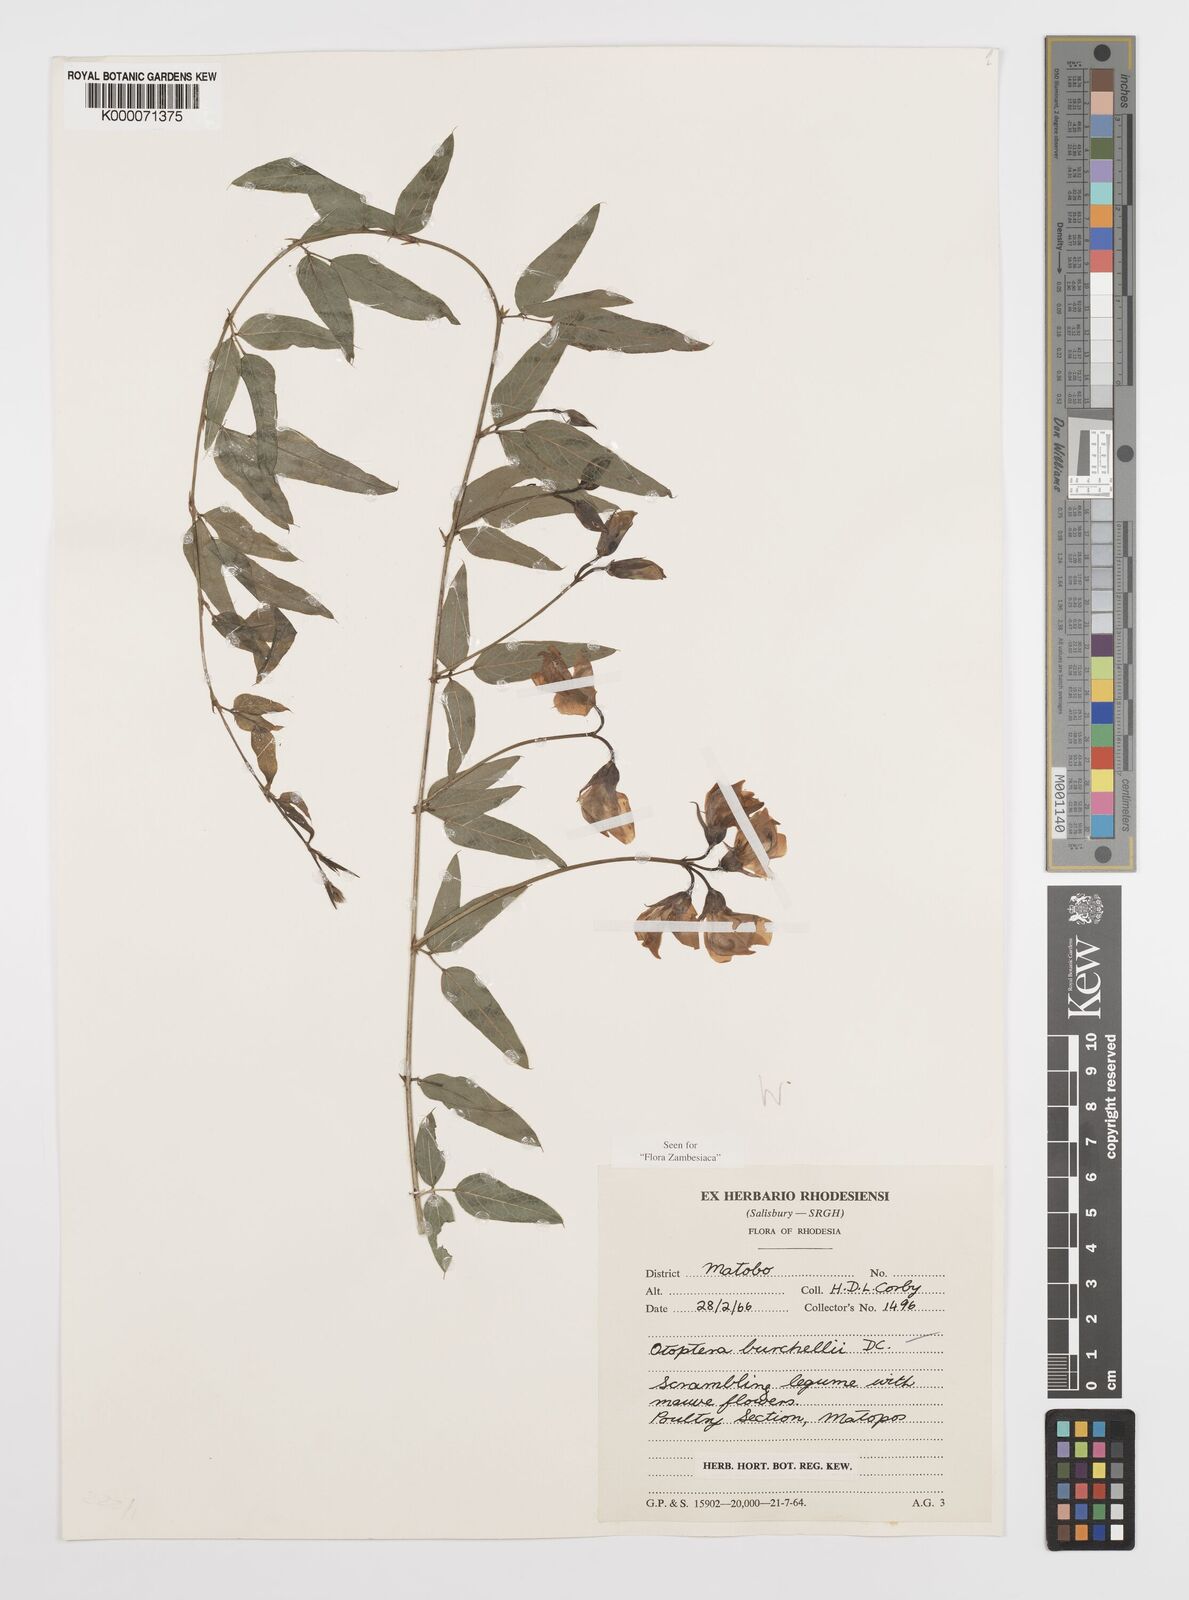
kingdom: Plantae
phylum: Tracheophyta
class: Magnoliopsida
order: Fabales
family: Fabaceae
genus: Otoptera
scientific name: Otoptera burchellii
